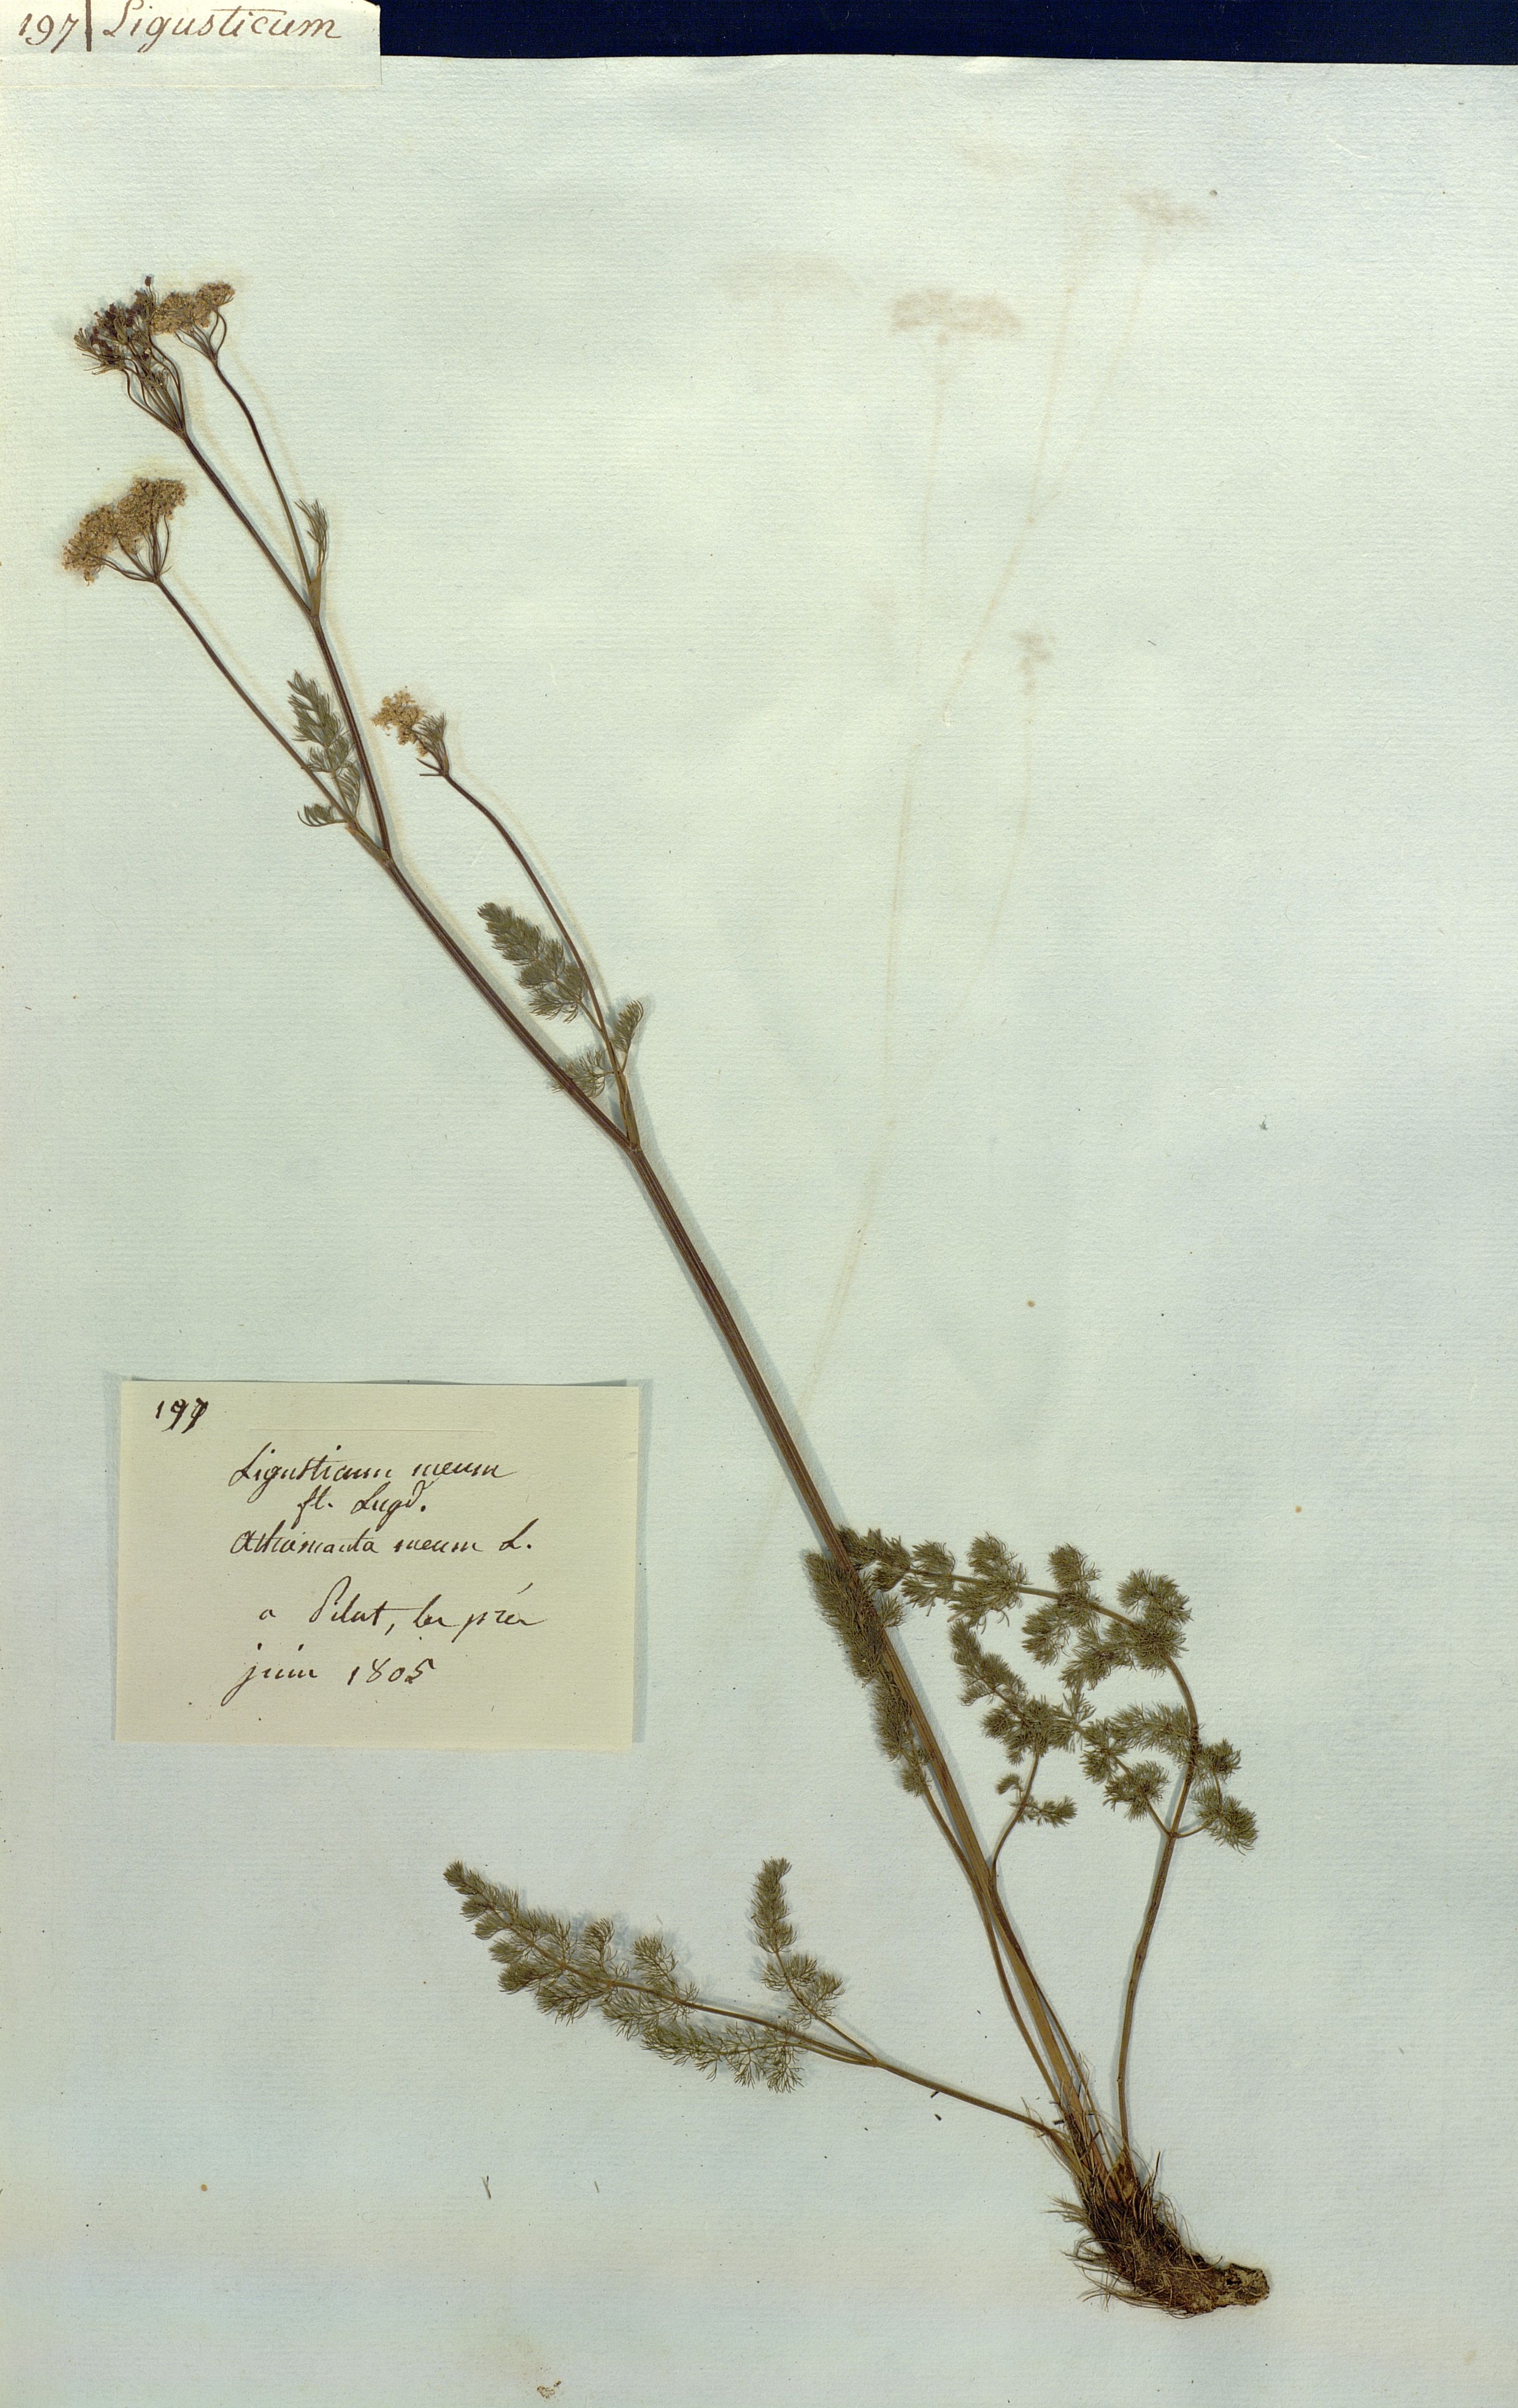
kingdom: Plantae
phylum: Tracheophyta
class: Magnoliopsida
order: Apiales
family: Apiaceae
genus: Meum
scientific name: Meum athamanticum
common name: Spignel
